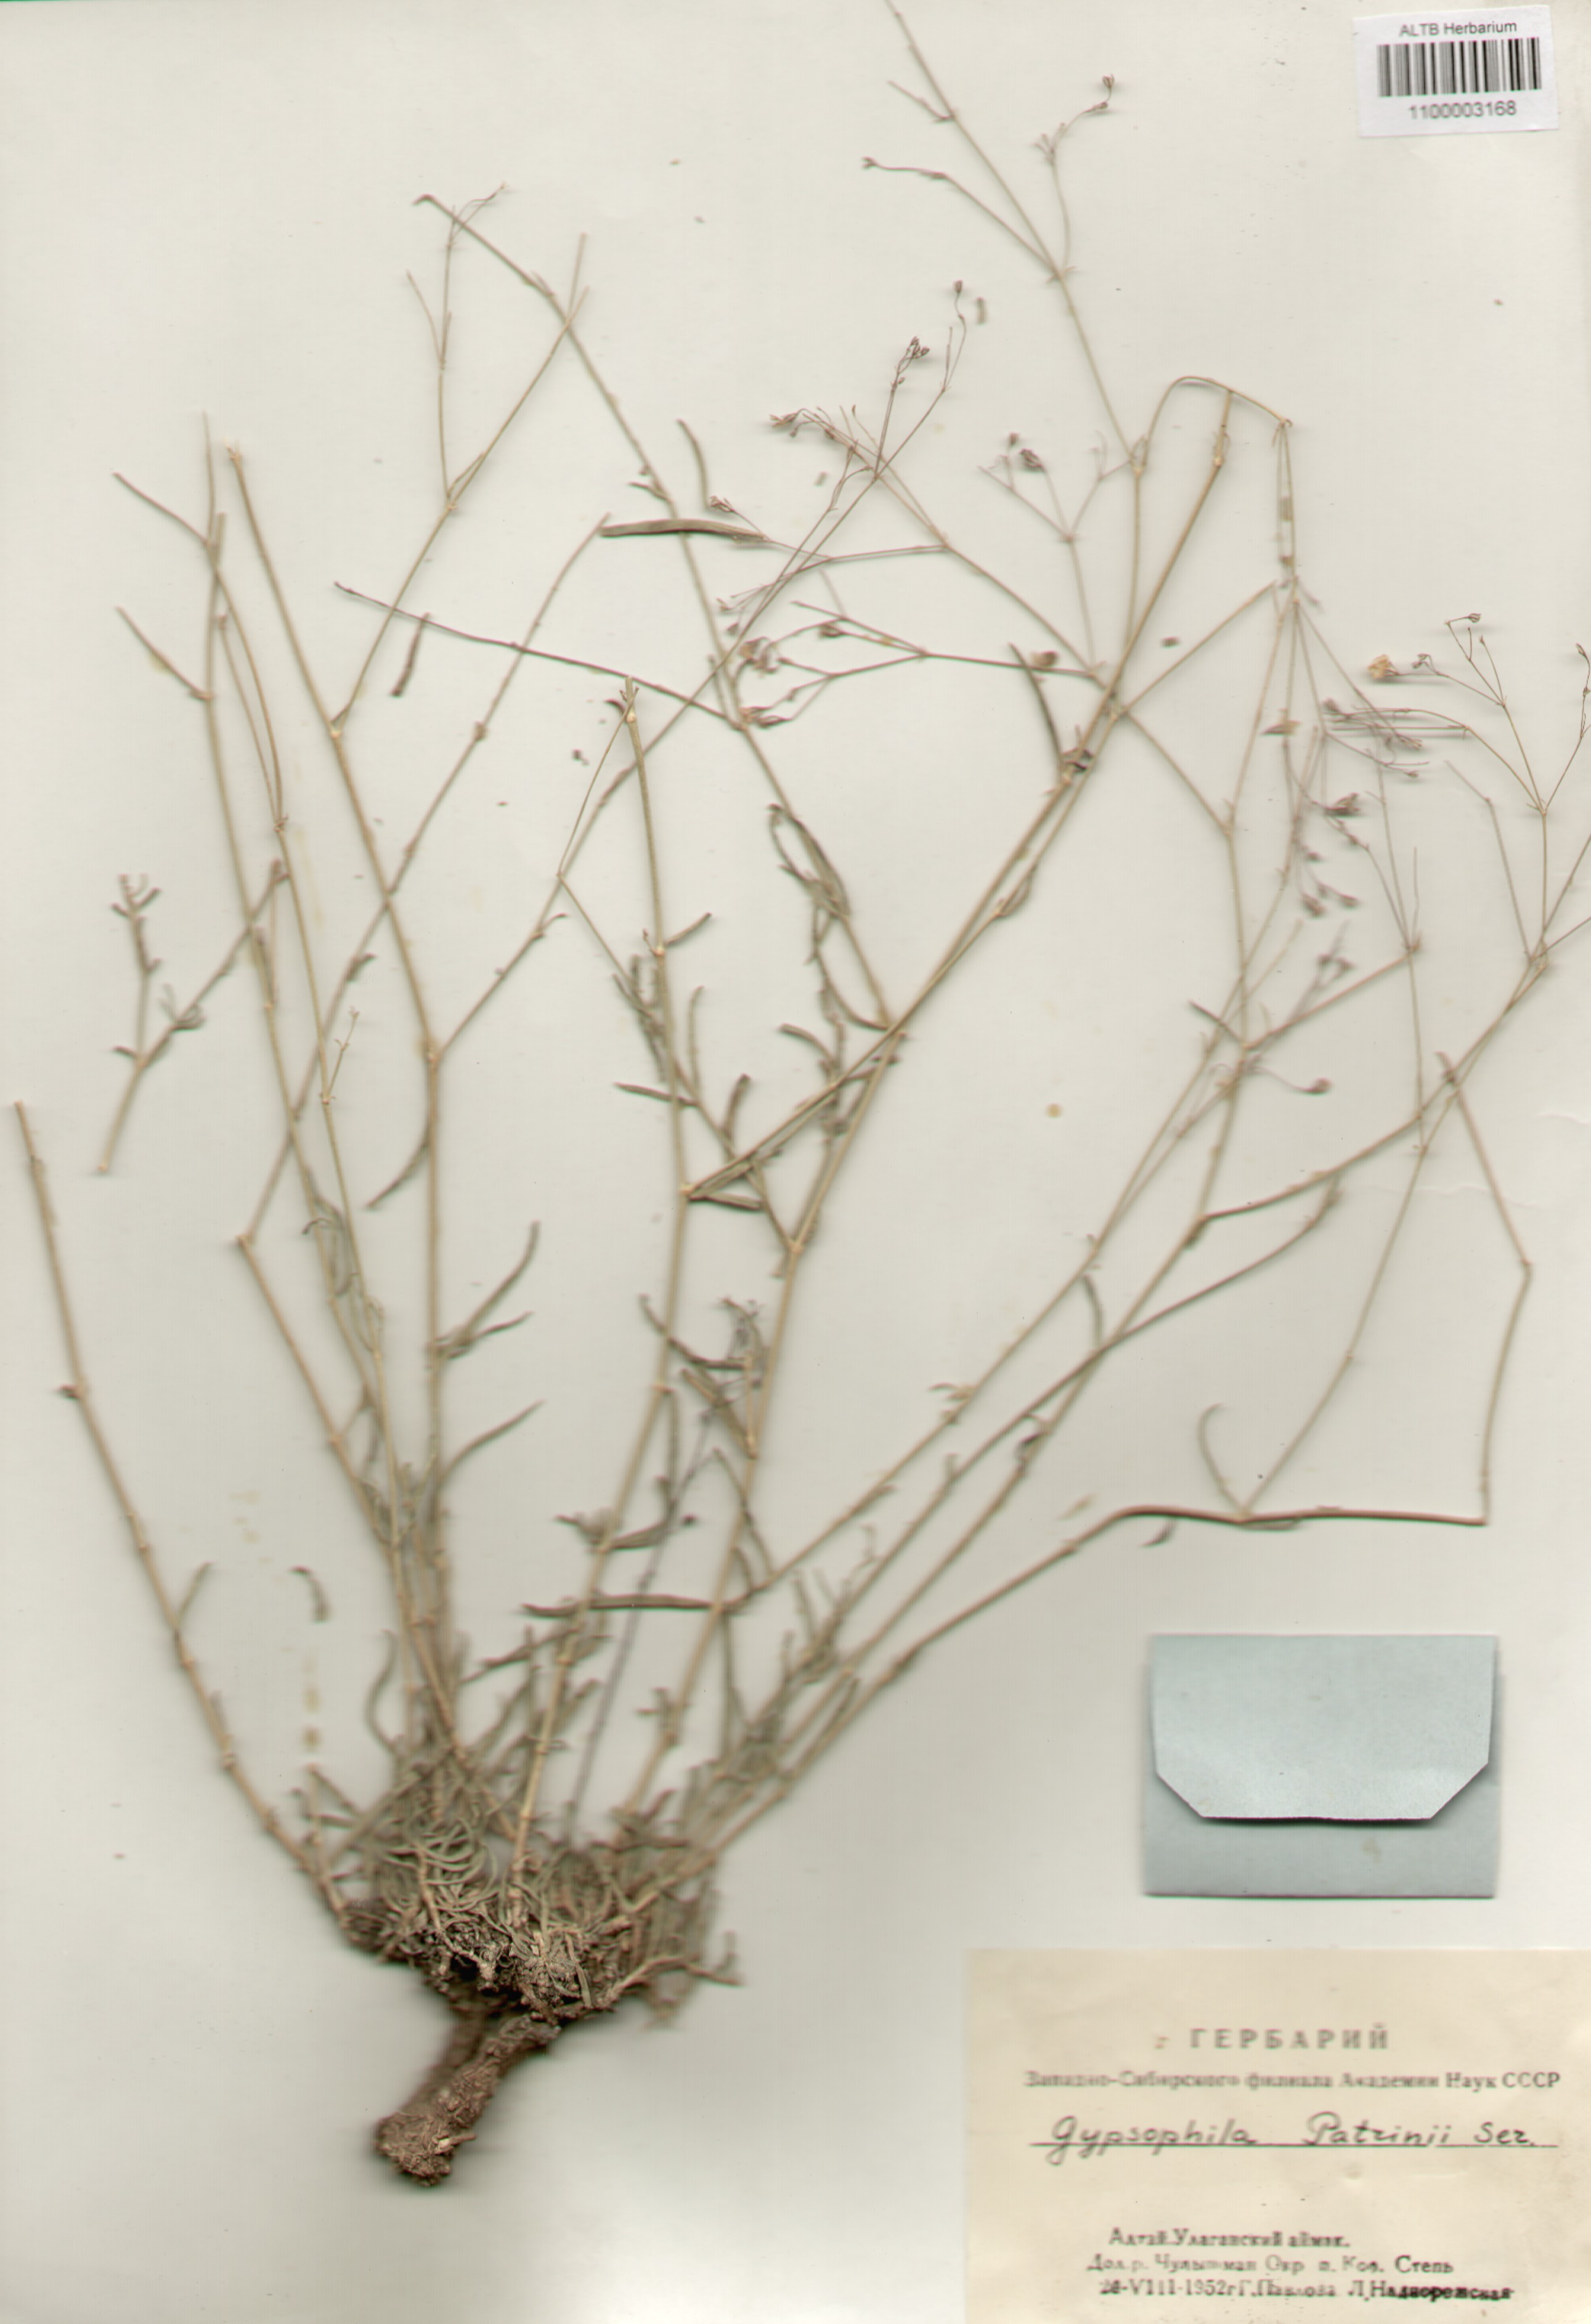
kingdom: Plantae
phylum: Tracheophyta
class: Magnoliopsida
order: Caryophyllales
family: Caryophyllaceae
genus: Gypsophila
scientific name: Gypsophila patrinii
